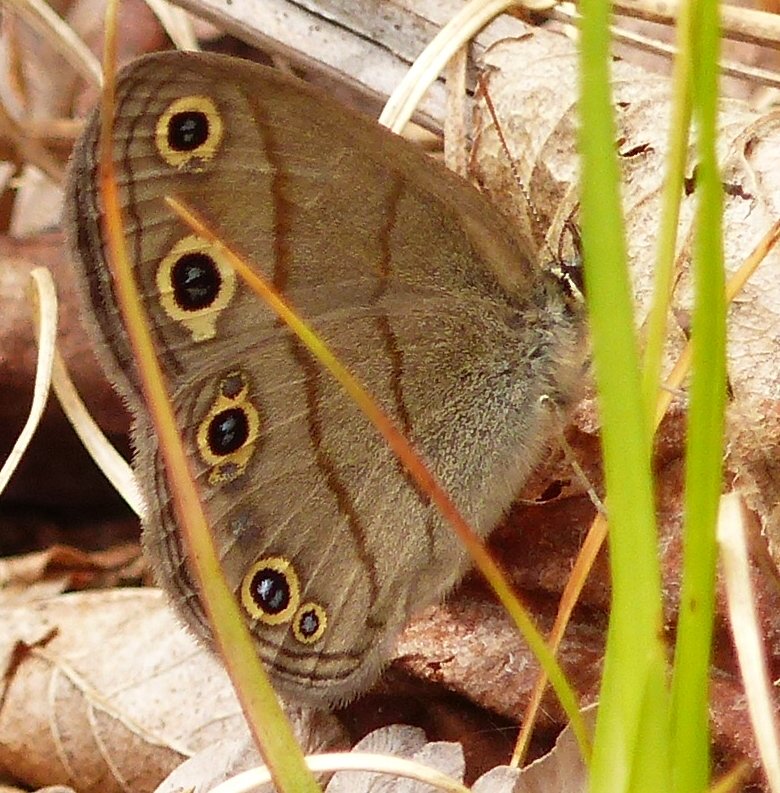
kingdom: Animalia
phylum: Arthropoda
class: Insecta
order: Lepidoptera
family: Nymphalidae
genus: Euptychia
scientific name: Euptychia cymela
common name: Little Wood Satyr
